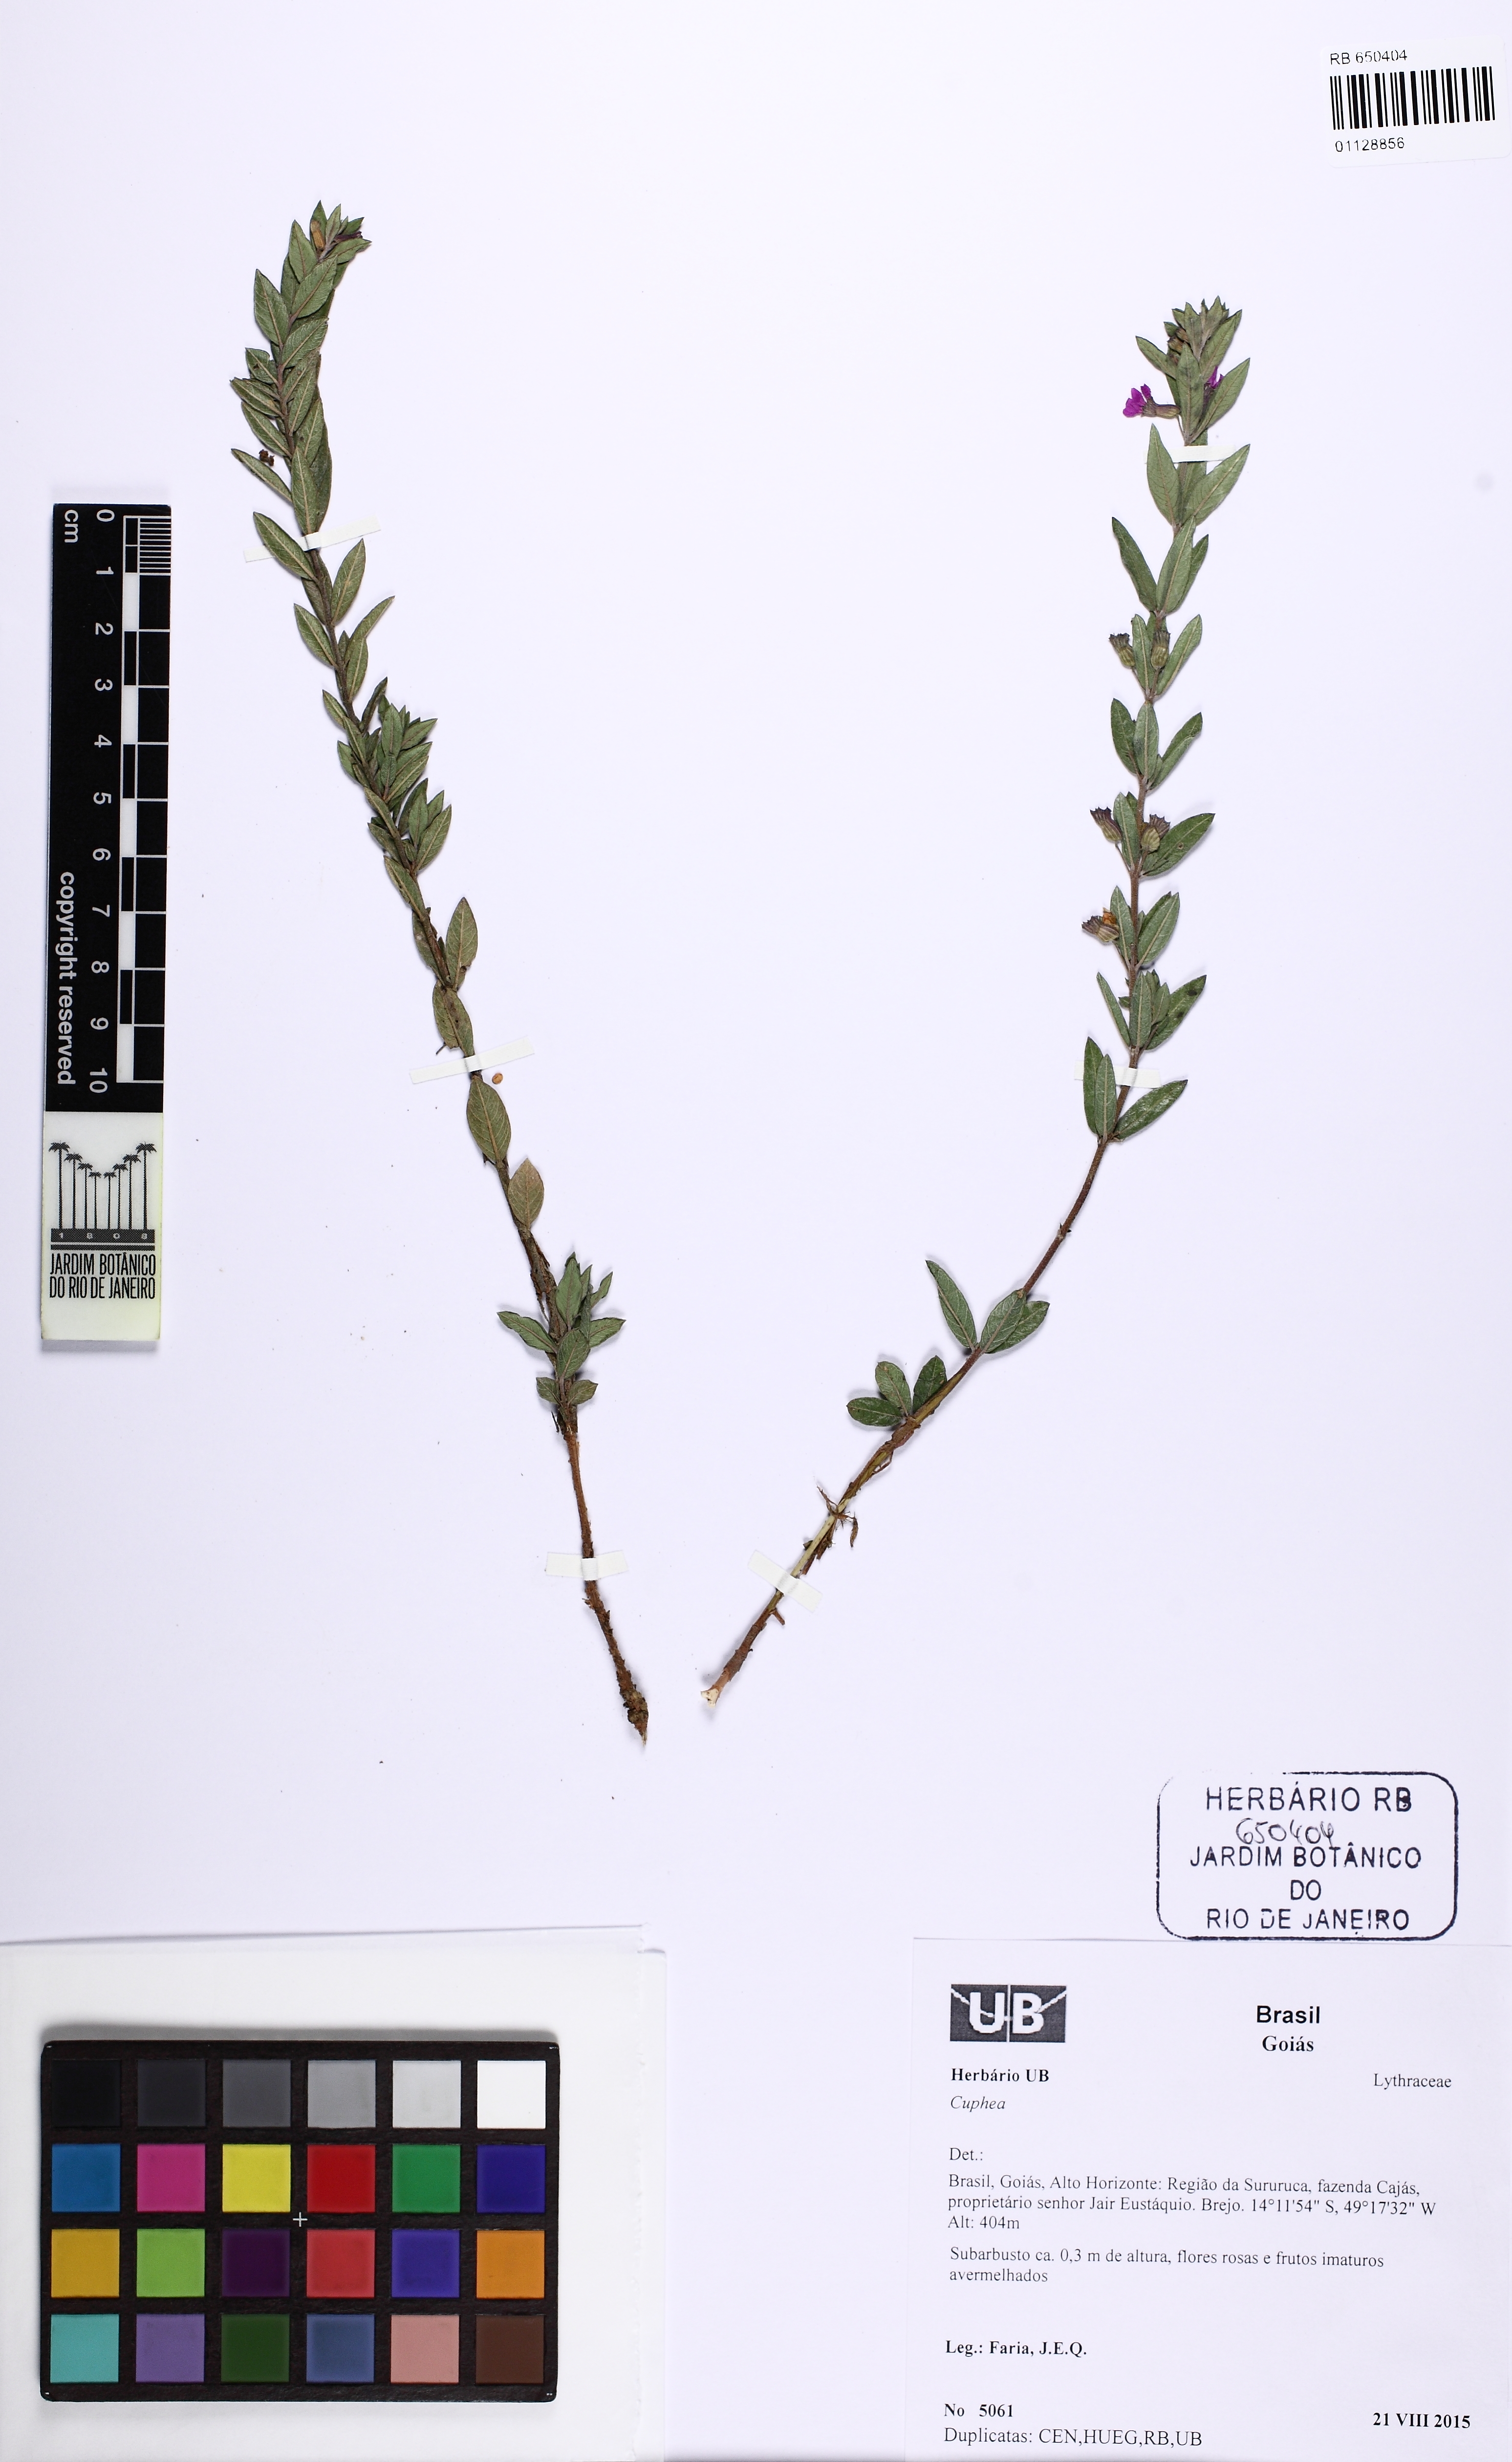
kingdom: Plantae
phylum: Tracheophyta
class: Magnoliopsida
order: Myrtales
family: Lythraceae
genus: Cuphea
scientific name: Cuphea
